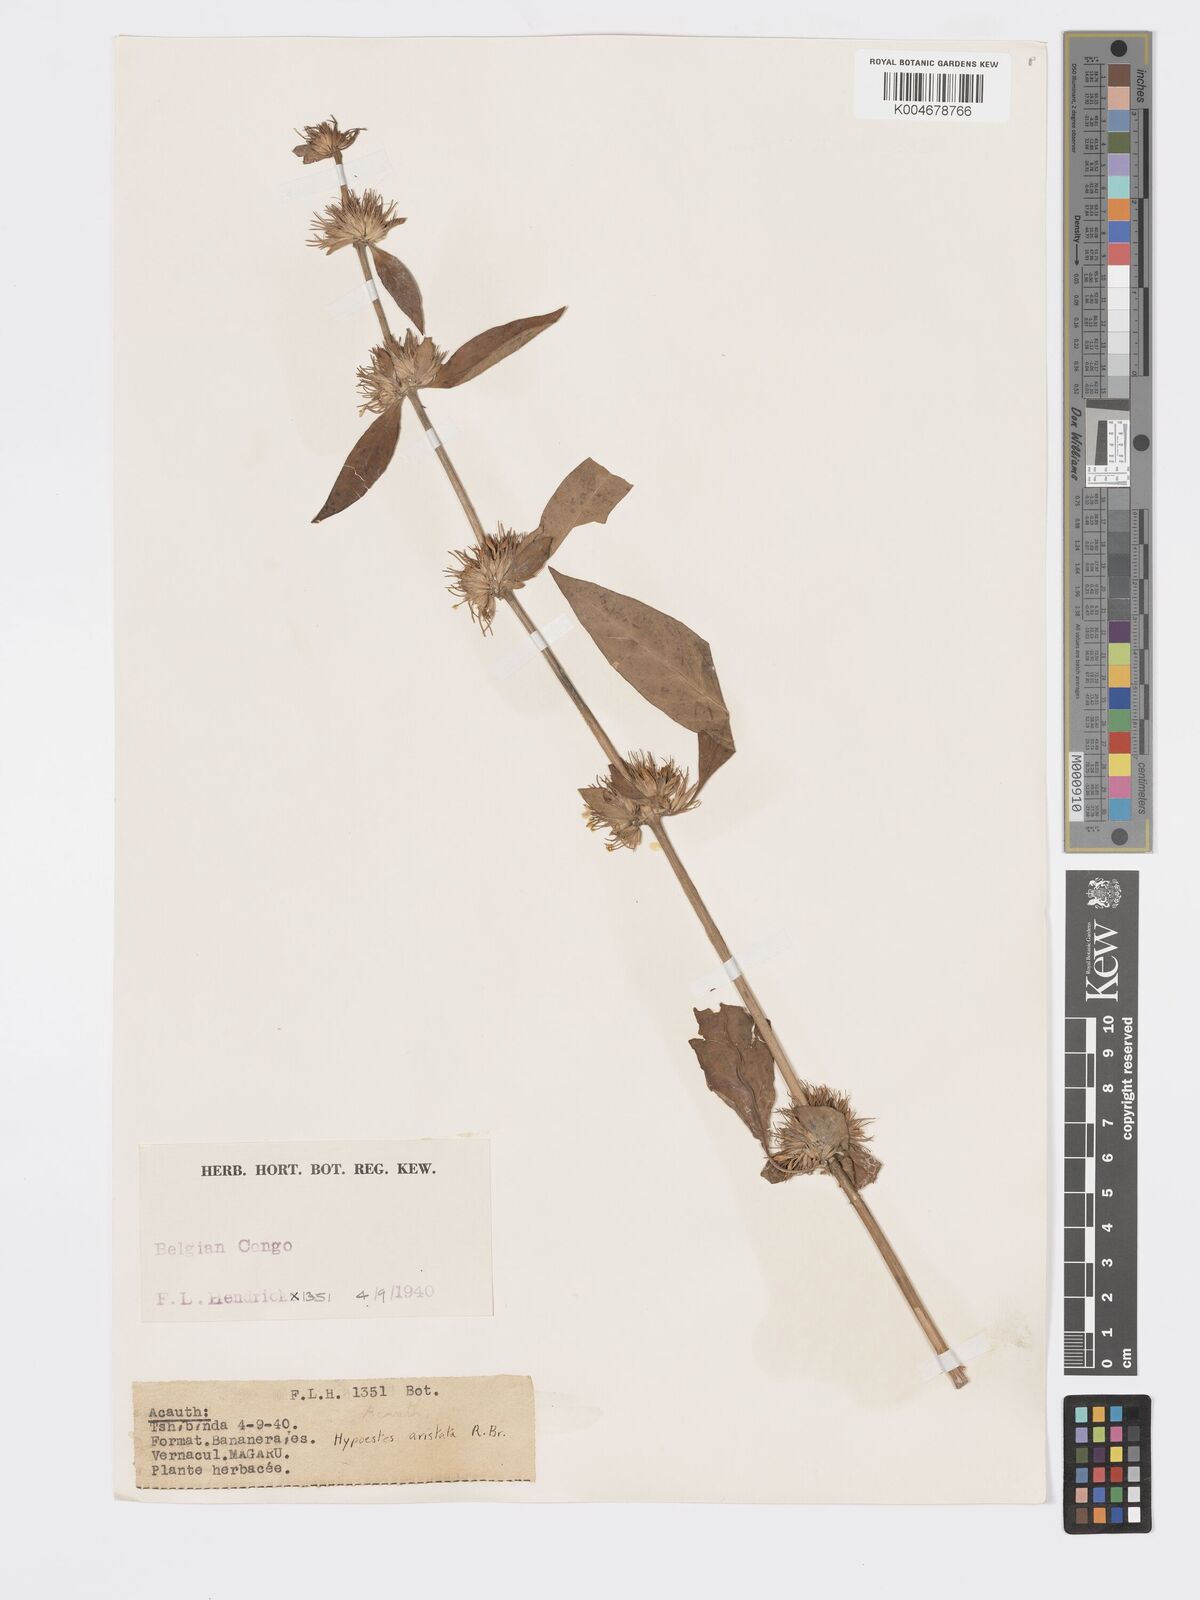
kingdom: Plantae
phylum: Tracheophyta
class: Magnoliopsida
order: Lamiales
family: Acanthaceae
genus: Hypoestes
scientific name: Hypoestes aristata
